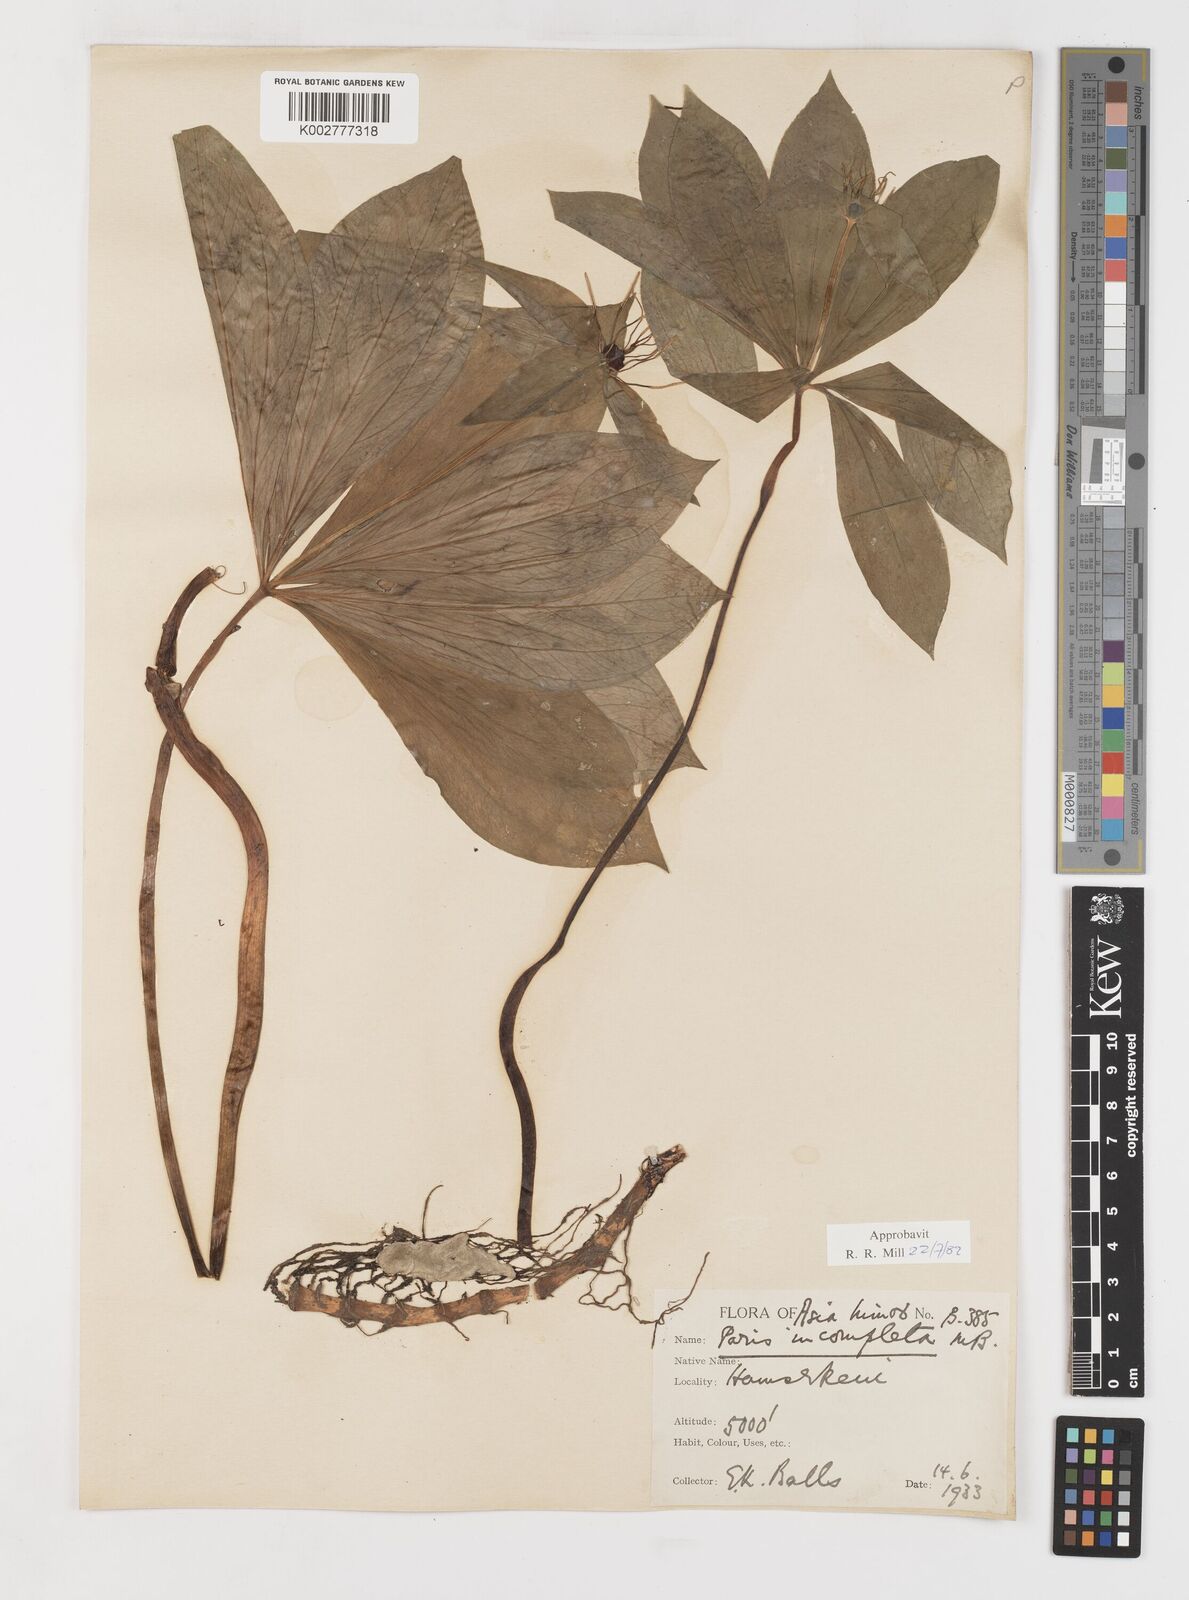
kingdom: Plantae
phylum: Tracheophyta
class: Liliopsida
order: Liliales
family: Melanthiaceae
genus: Paris
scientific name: Paris quadrifolia
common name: Herb-paris
